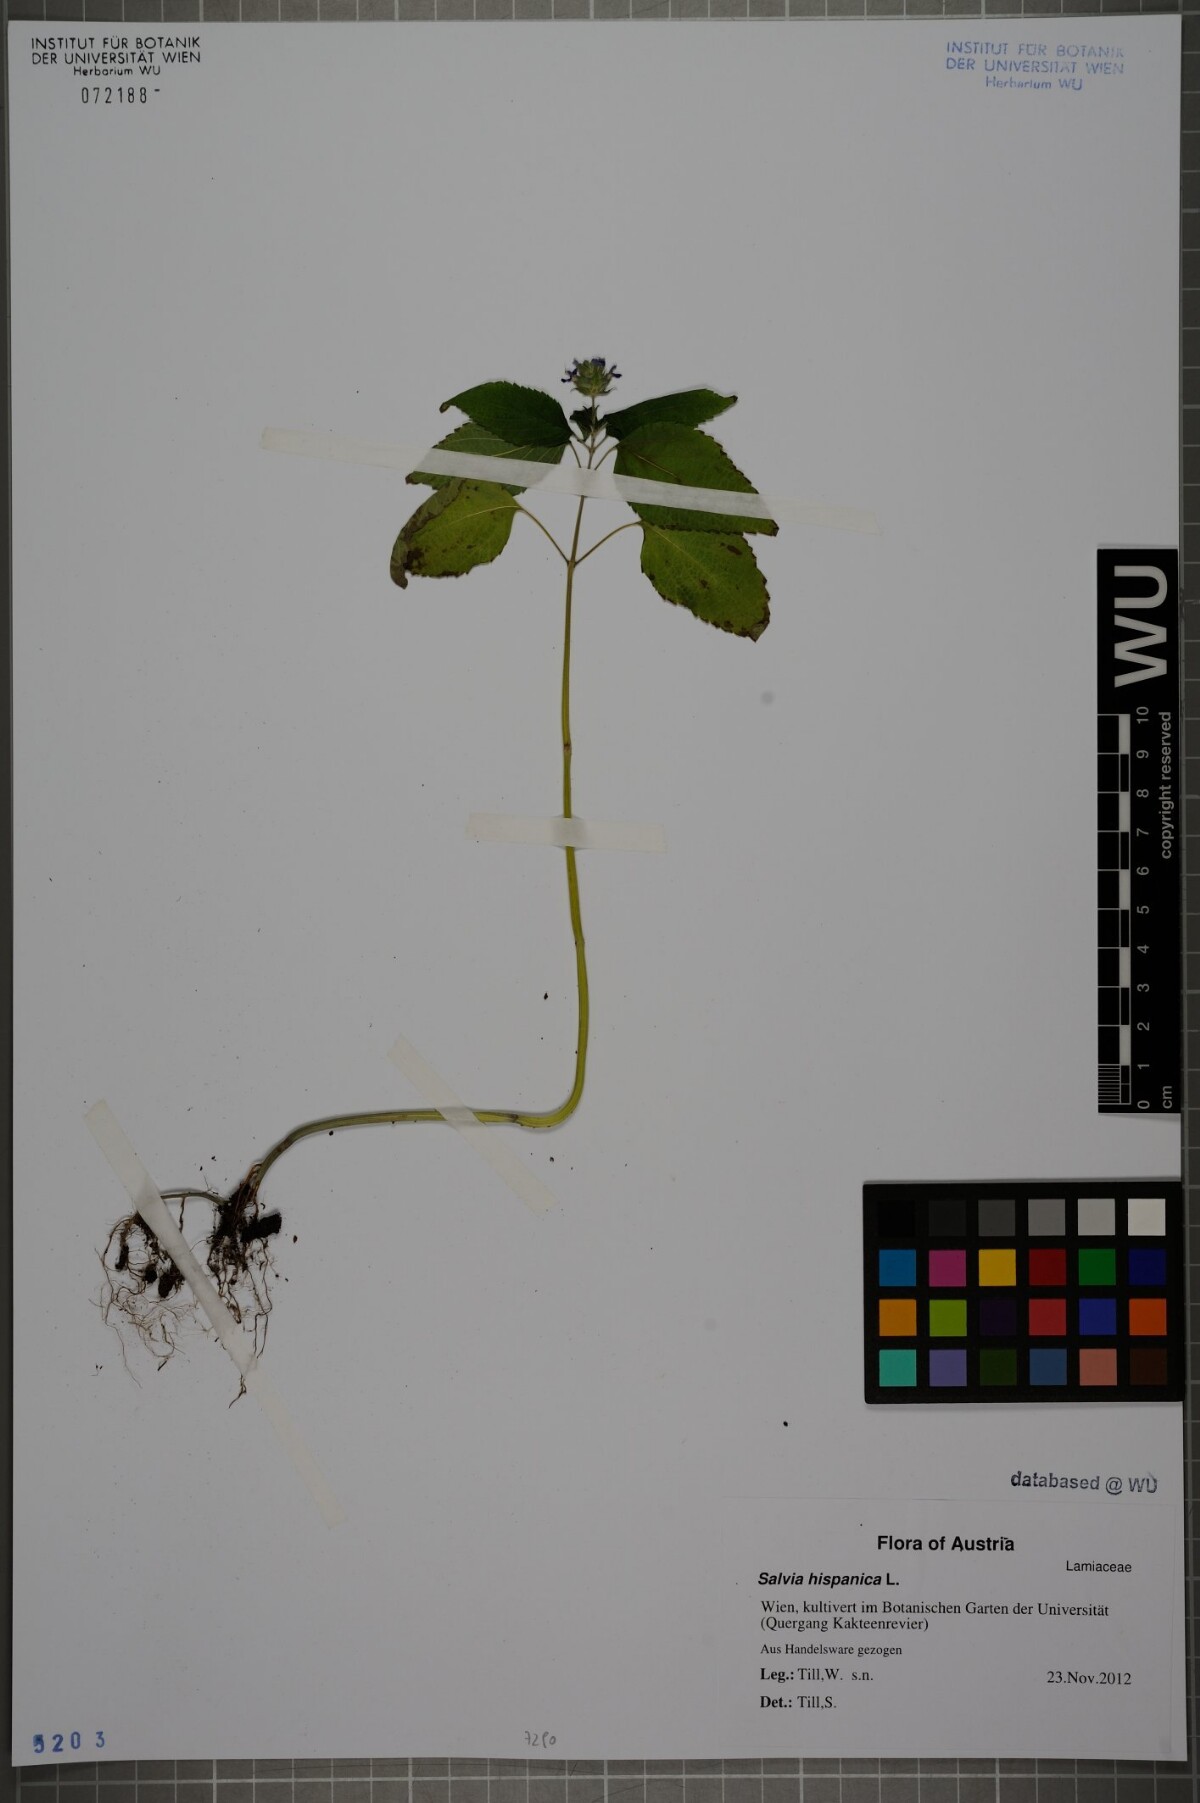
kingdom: Plantae
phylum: Tracheophyta
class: Magnoliopsida
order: Lamiales
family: Lamiaceae
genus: Salvia
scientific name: Salvia hispanica
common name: Chia
